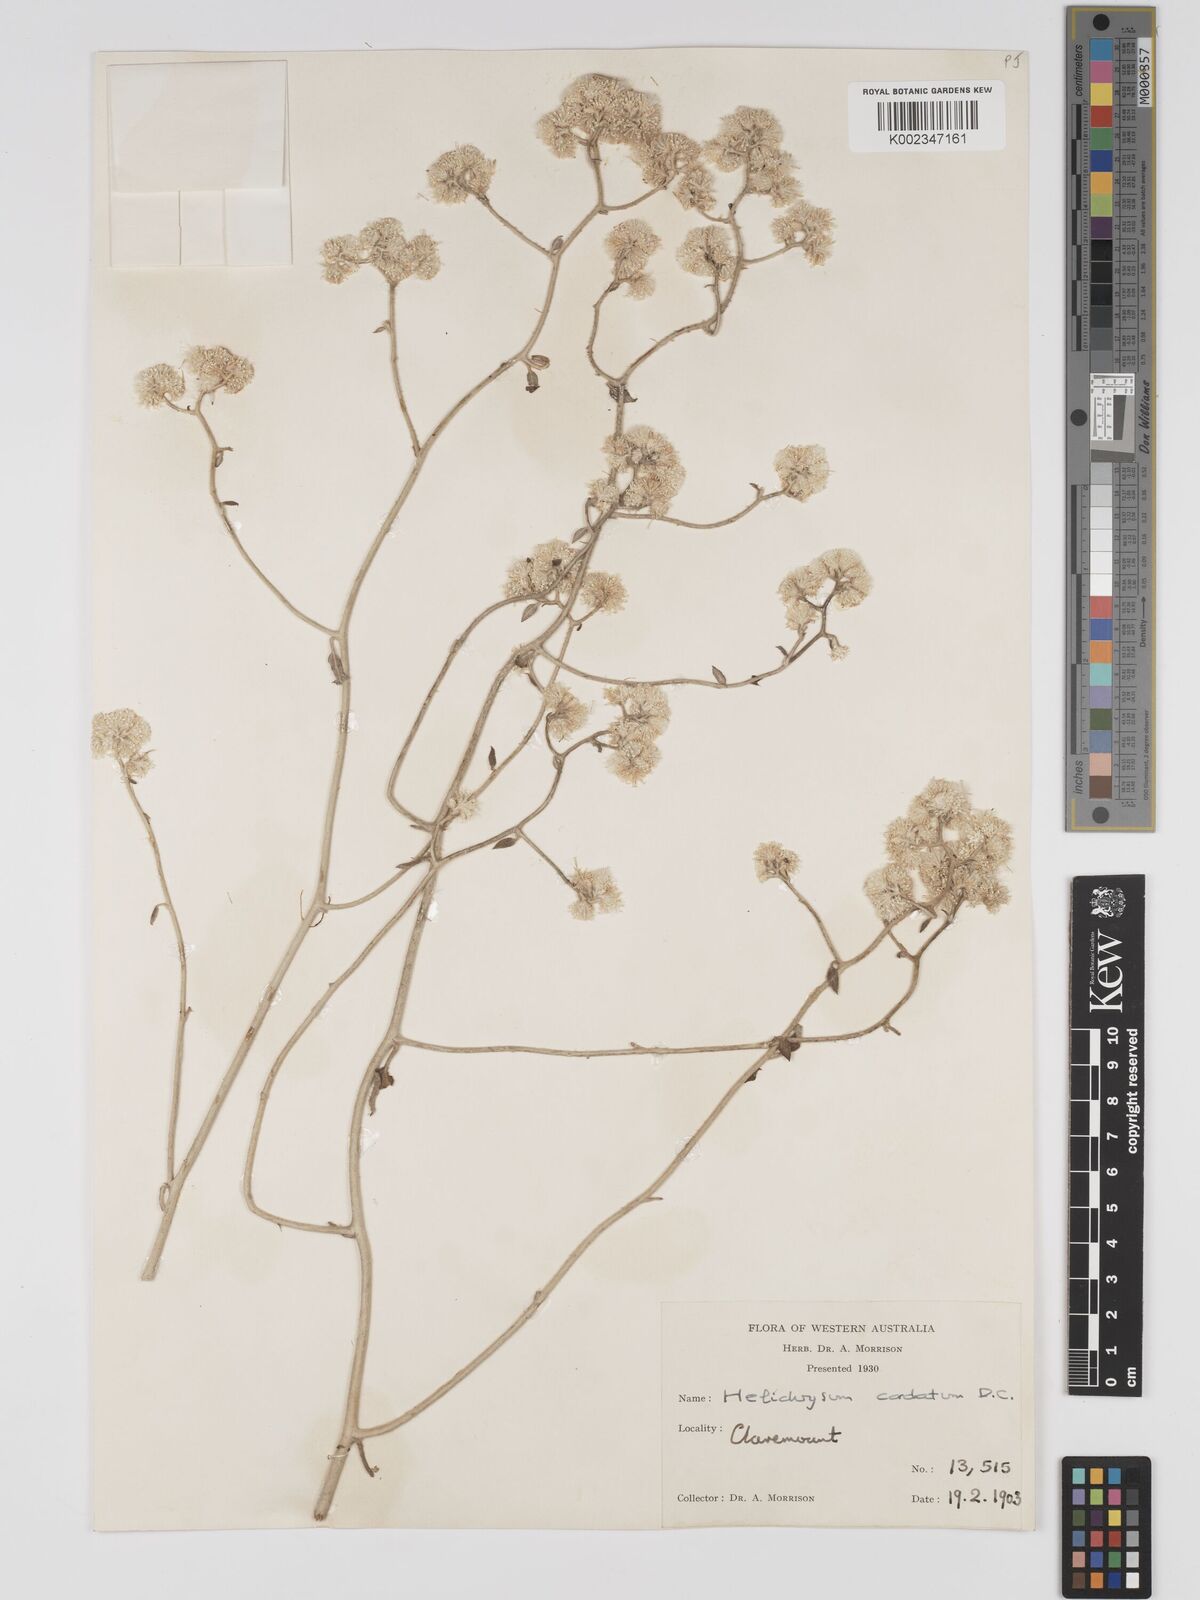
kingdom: Plantae
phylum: Tracheophyta
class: Magnoliopsida
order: Asterales
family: Asteraceae
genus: Ozothamnus
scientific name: Ozothamnus
